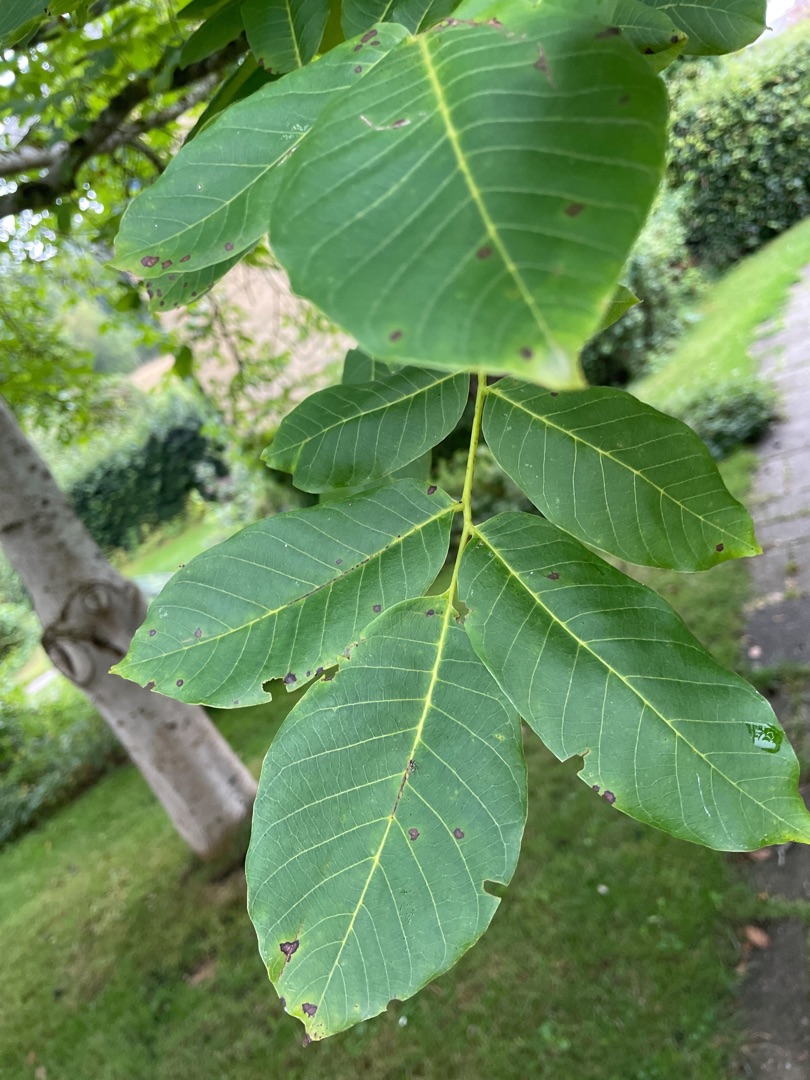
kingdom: Plantae
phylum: Tracheophyta
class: Magnoliopsida
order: Fagales
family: Juglandaceae
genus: Juglans
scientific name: Juglans regia
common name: Almindelig valnød
